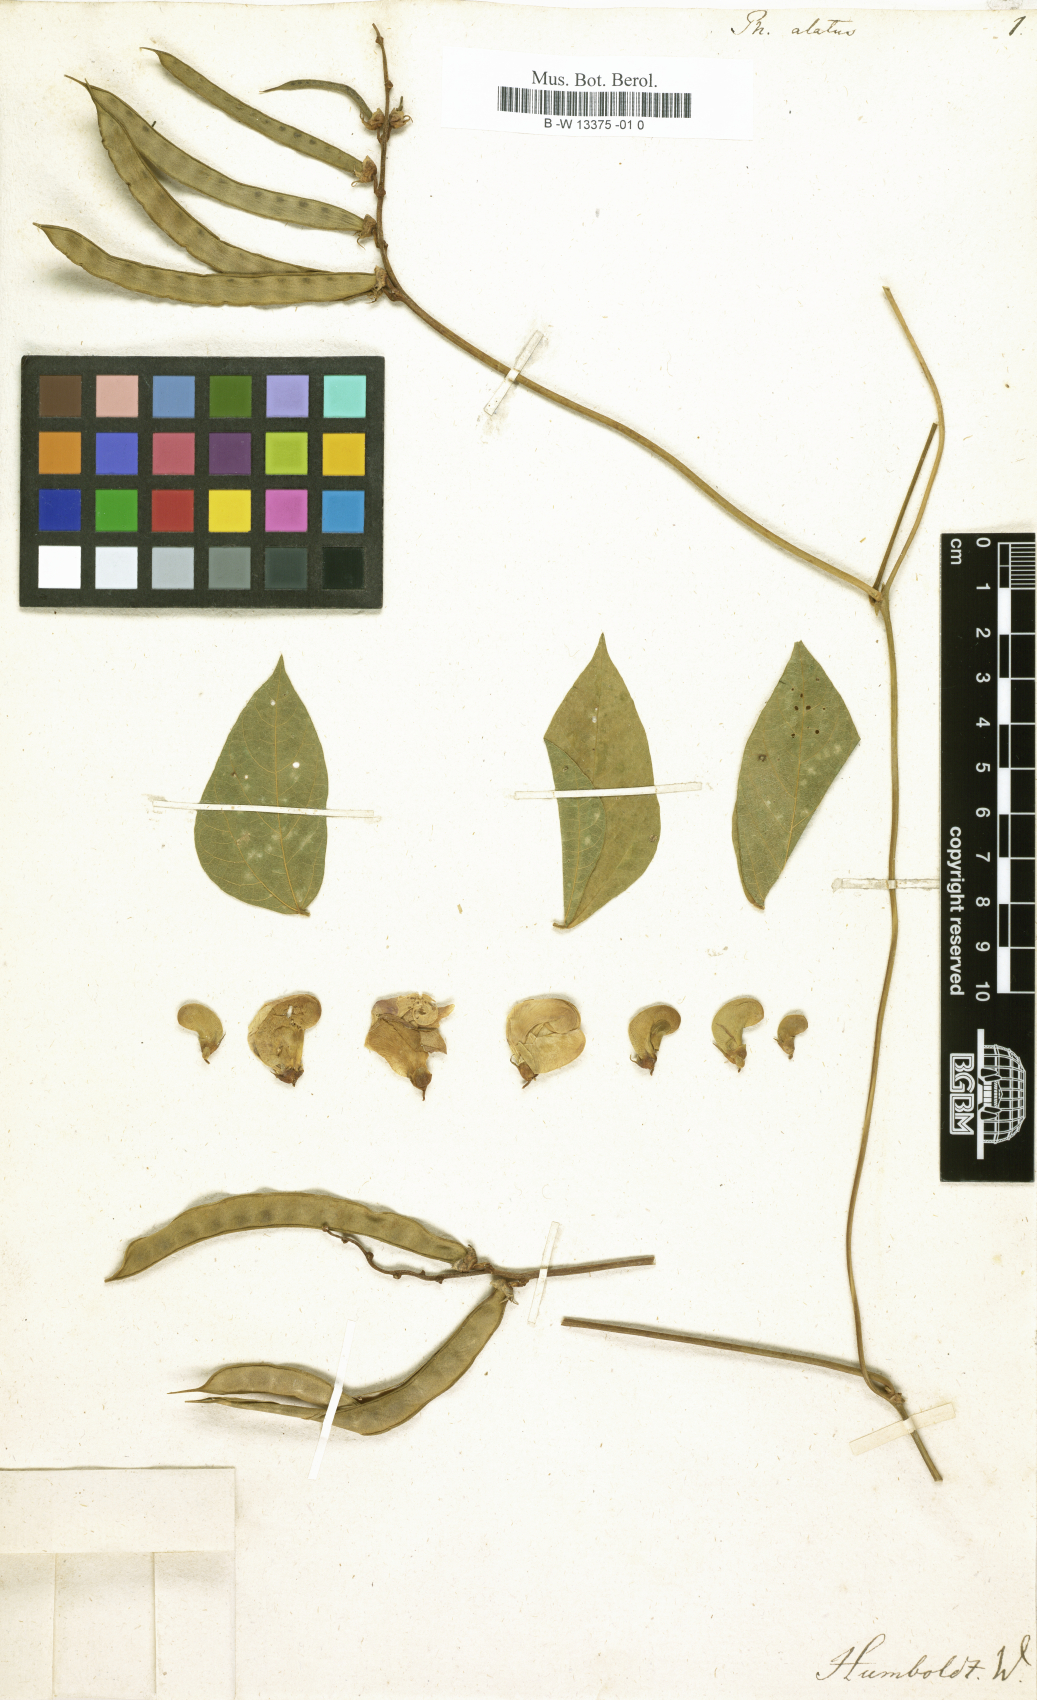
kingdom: Plantae
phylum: Tracheophyta
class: Magnoliopsida
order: Fabales
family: Fabaceae
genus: Vigna
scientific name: Vigna vexillata
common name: Zombi pea
